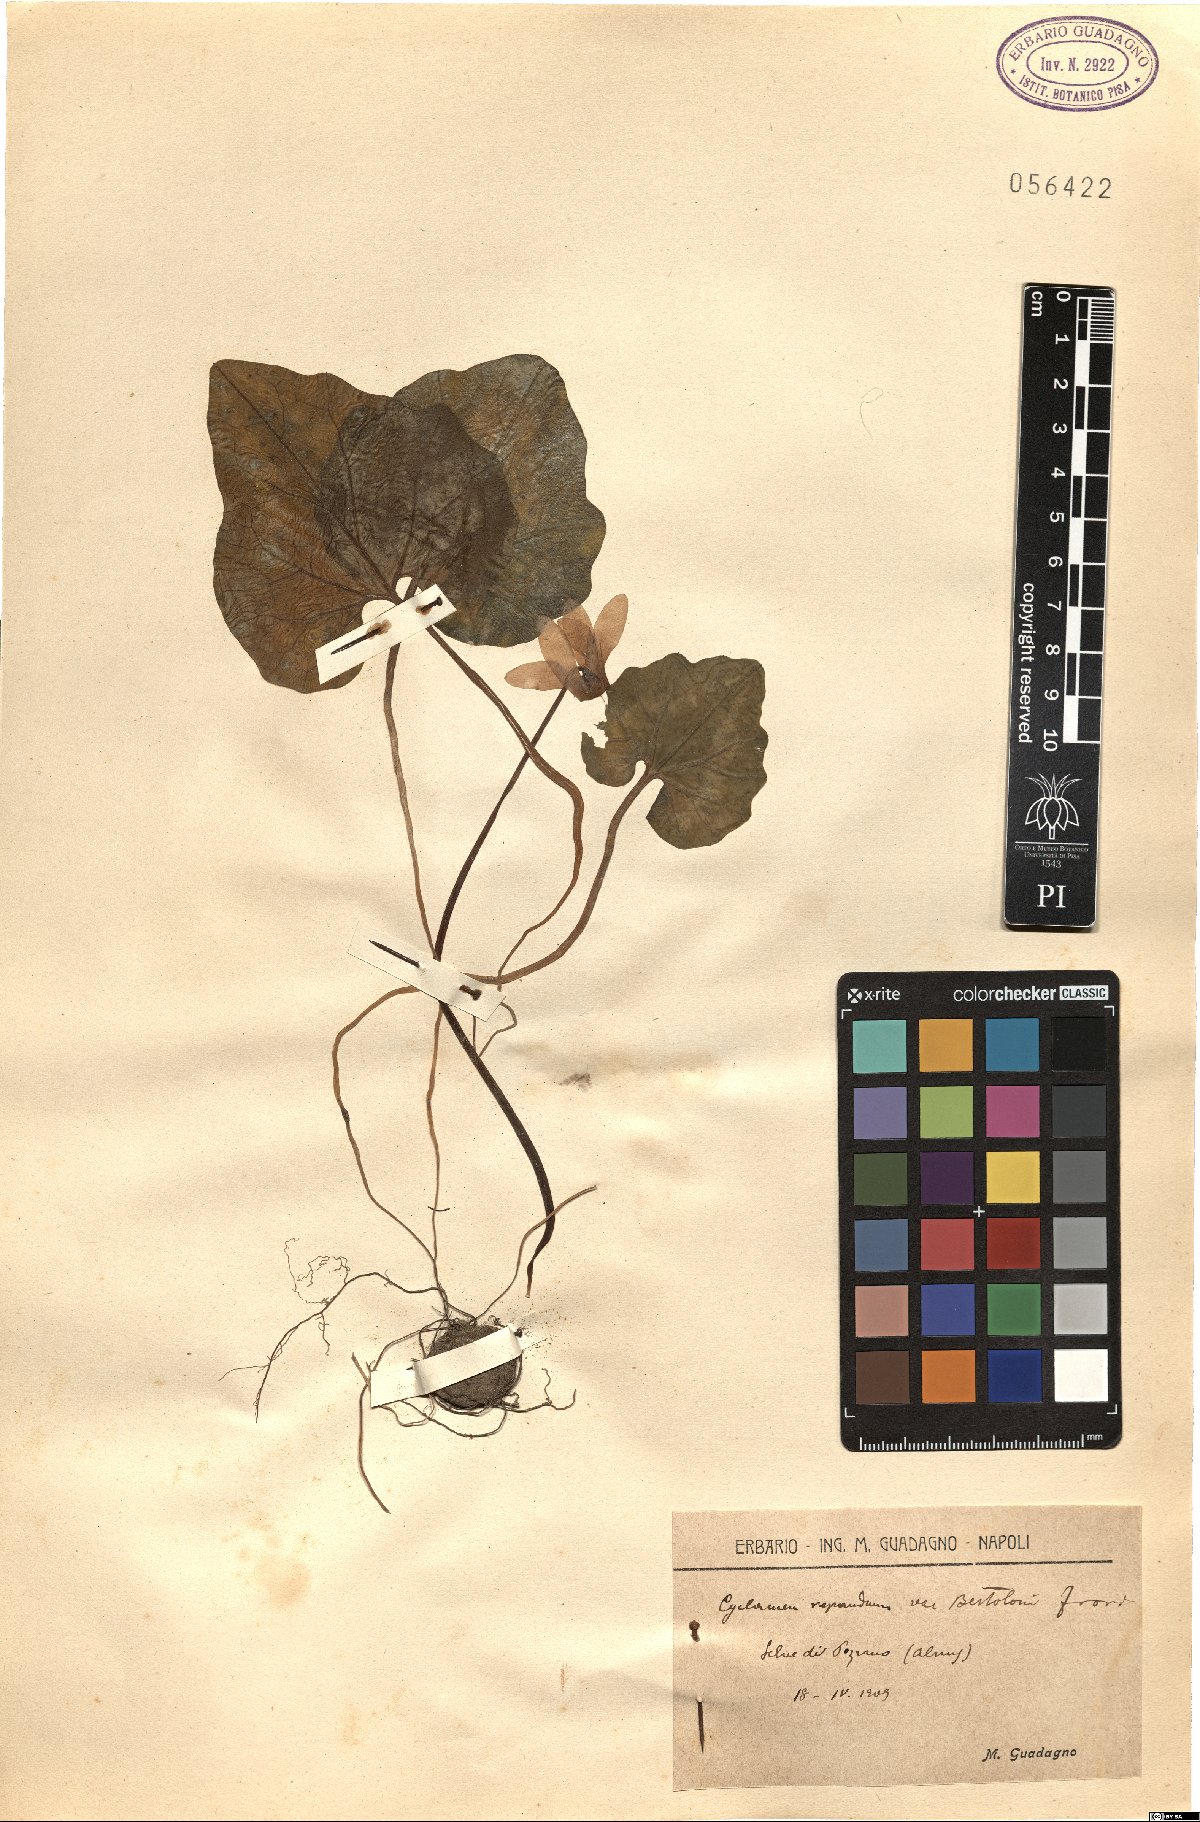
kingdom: Plantae
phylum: Tracheophyta
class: Magnoliopsida
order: Ericales
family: Primulaceae
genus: Cyclamen
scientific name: Cyclamen repandum
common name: Spring sowbread
